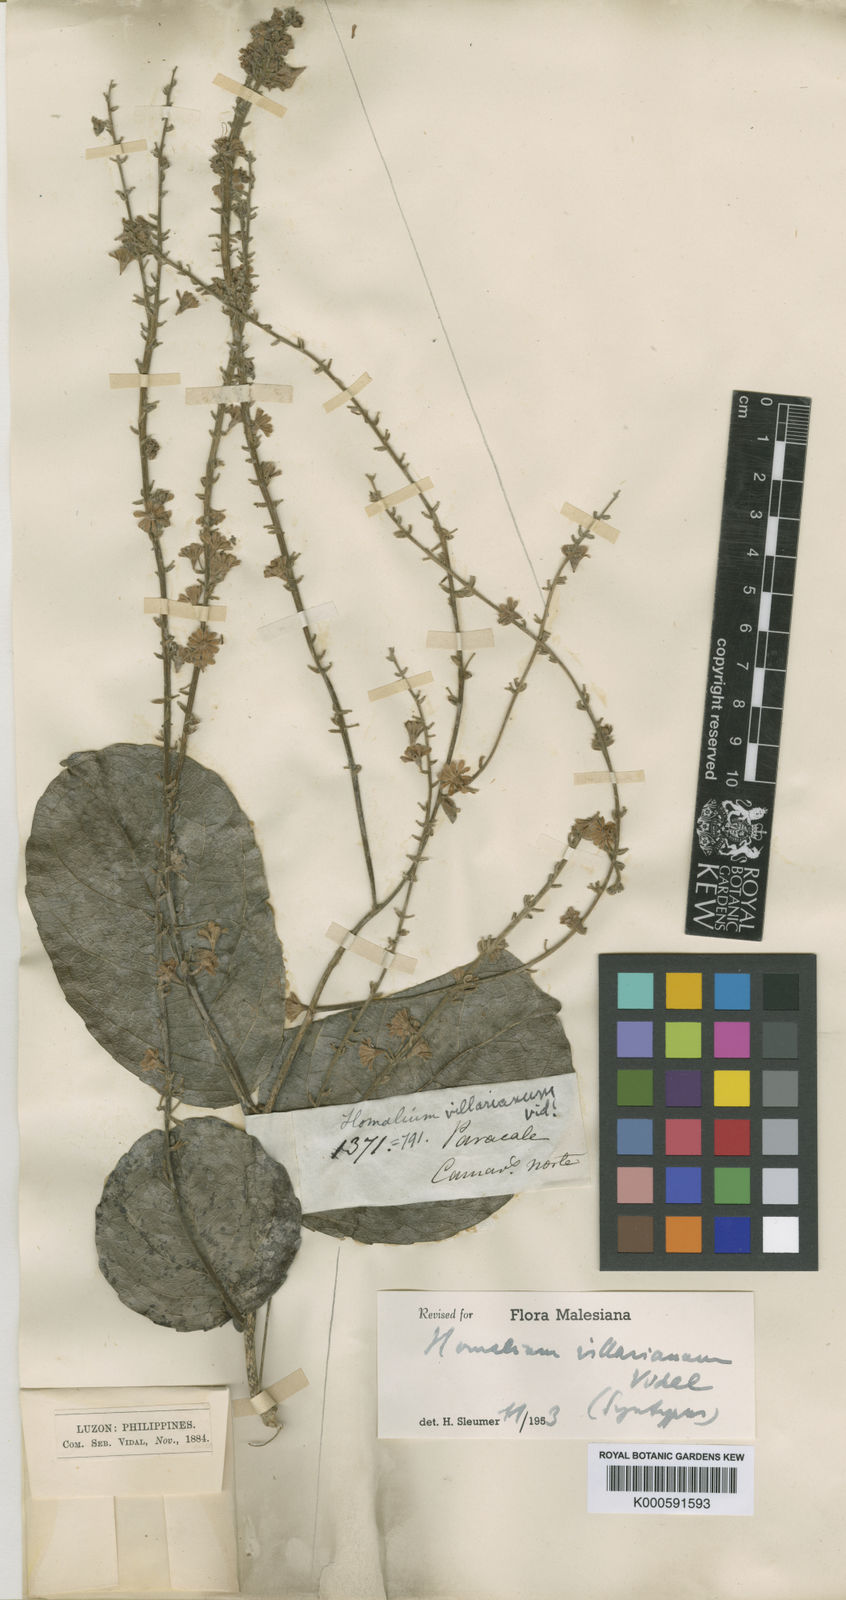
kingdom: Plantae
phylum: Tracheophyta
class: Magnoliopsida
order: Malpighiales
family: Salicaceae
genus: Homalium
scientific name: Homalium villarianum
